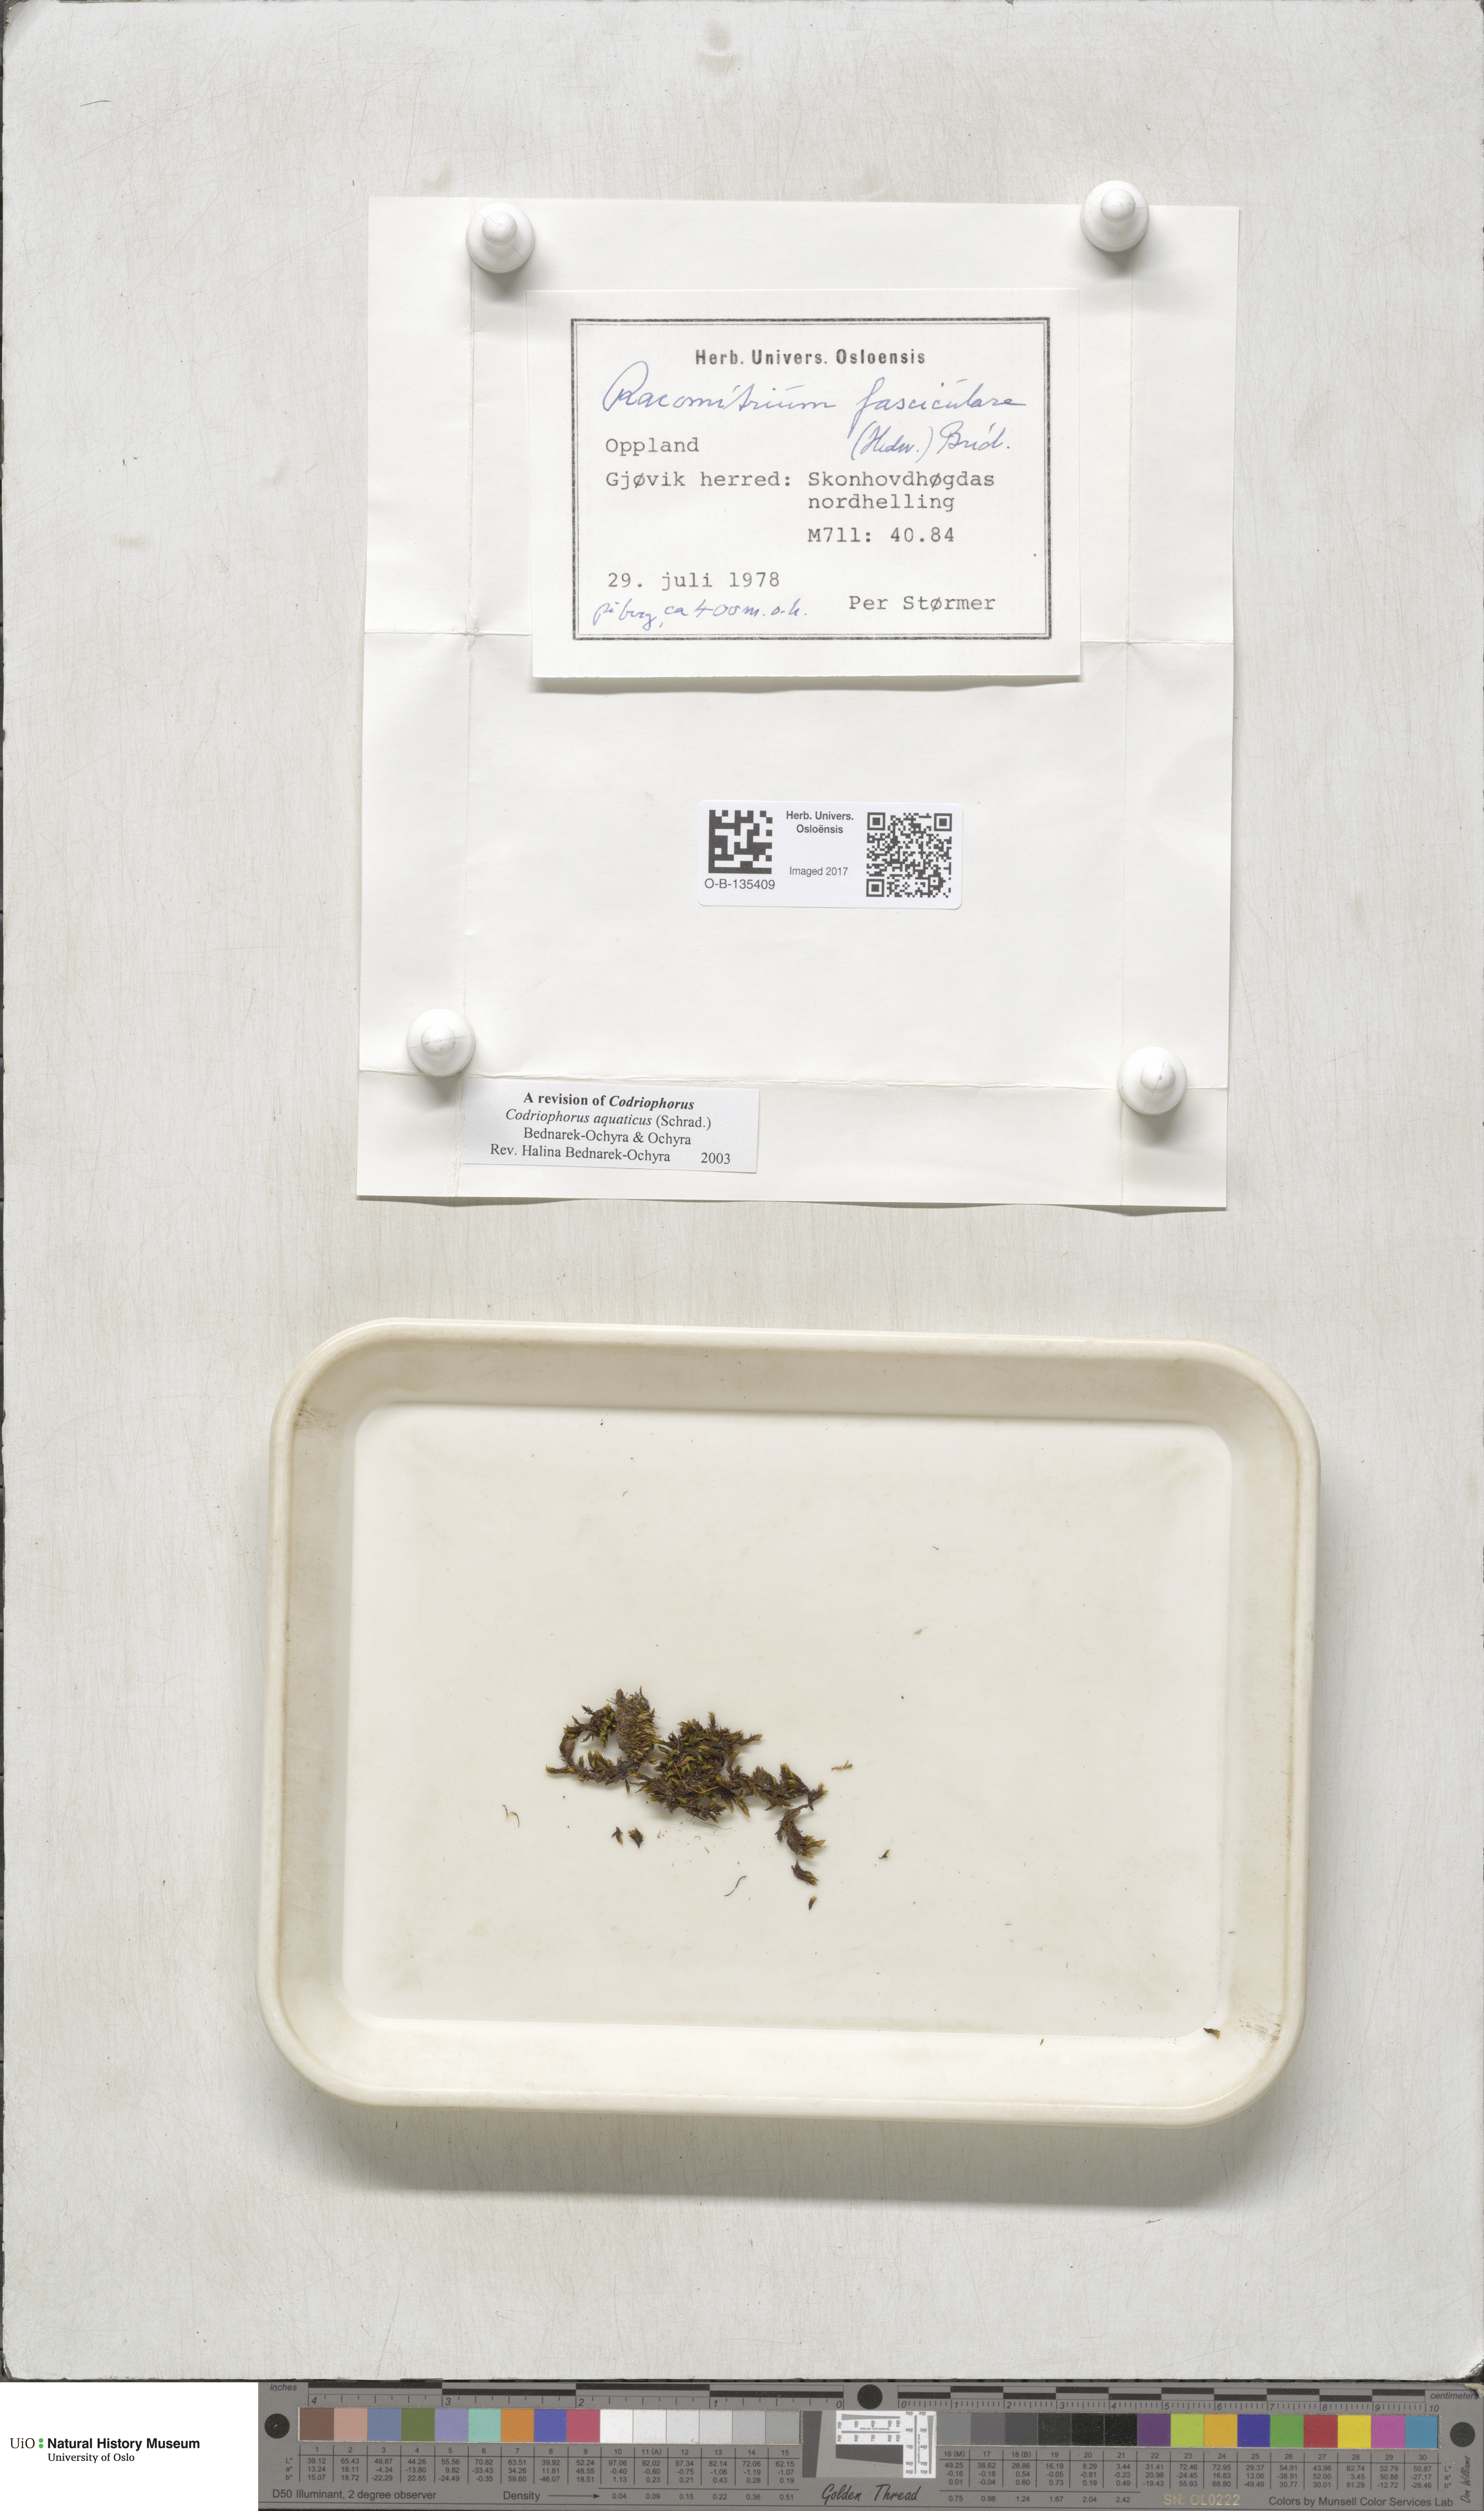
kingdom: Plantae
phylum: Bryophyta
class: Bryopsida
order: Grimmiales
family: Grimmiaceae
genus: Codriophorus
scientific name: Codriophorus aquaticus
